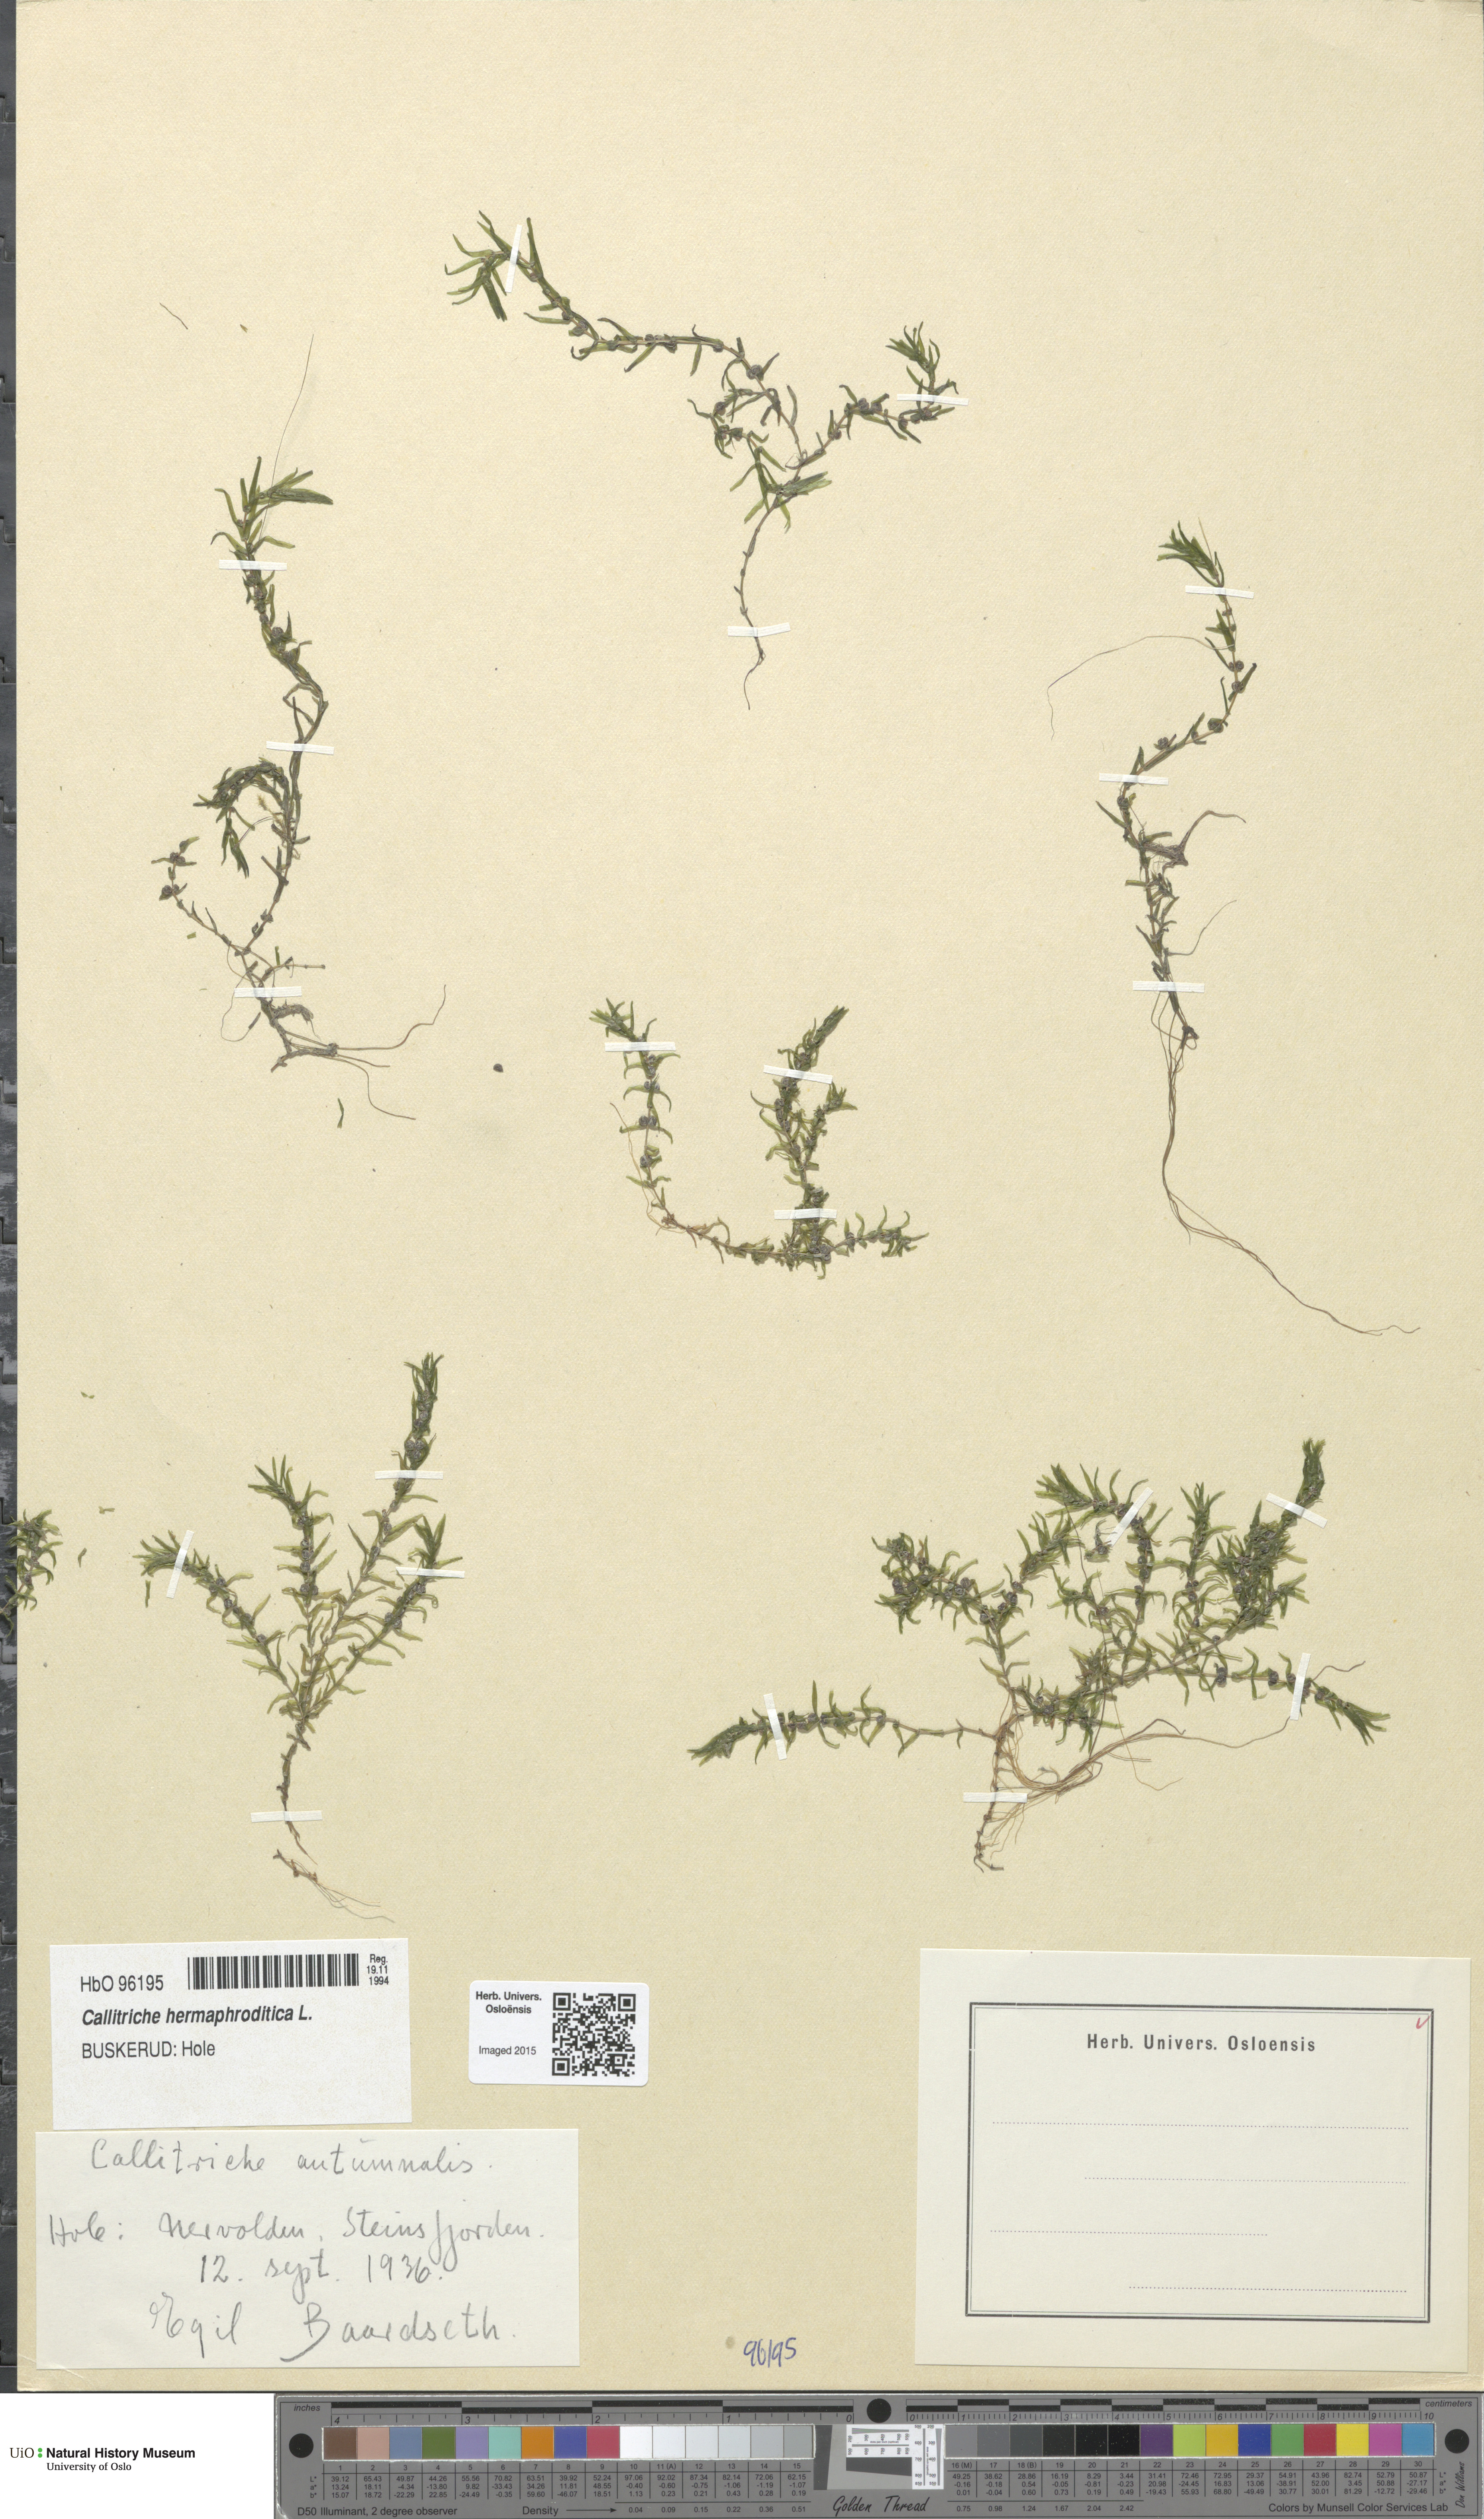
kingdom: Plantae
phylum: Tracheophyta
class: Magnoliopsida
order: Lamiales
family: Plantaginaceae
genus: Callitriche
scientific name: Callitriche hermaphroditica
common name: Autumnal water-starwort
